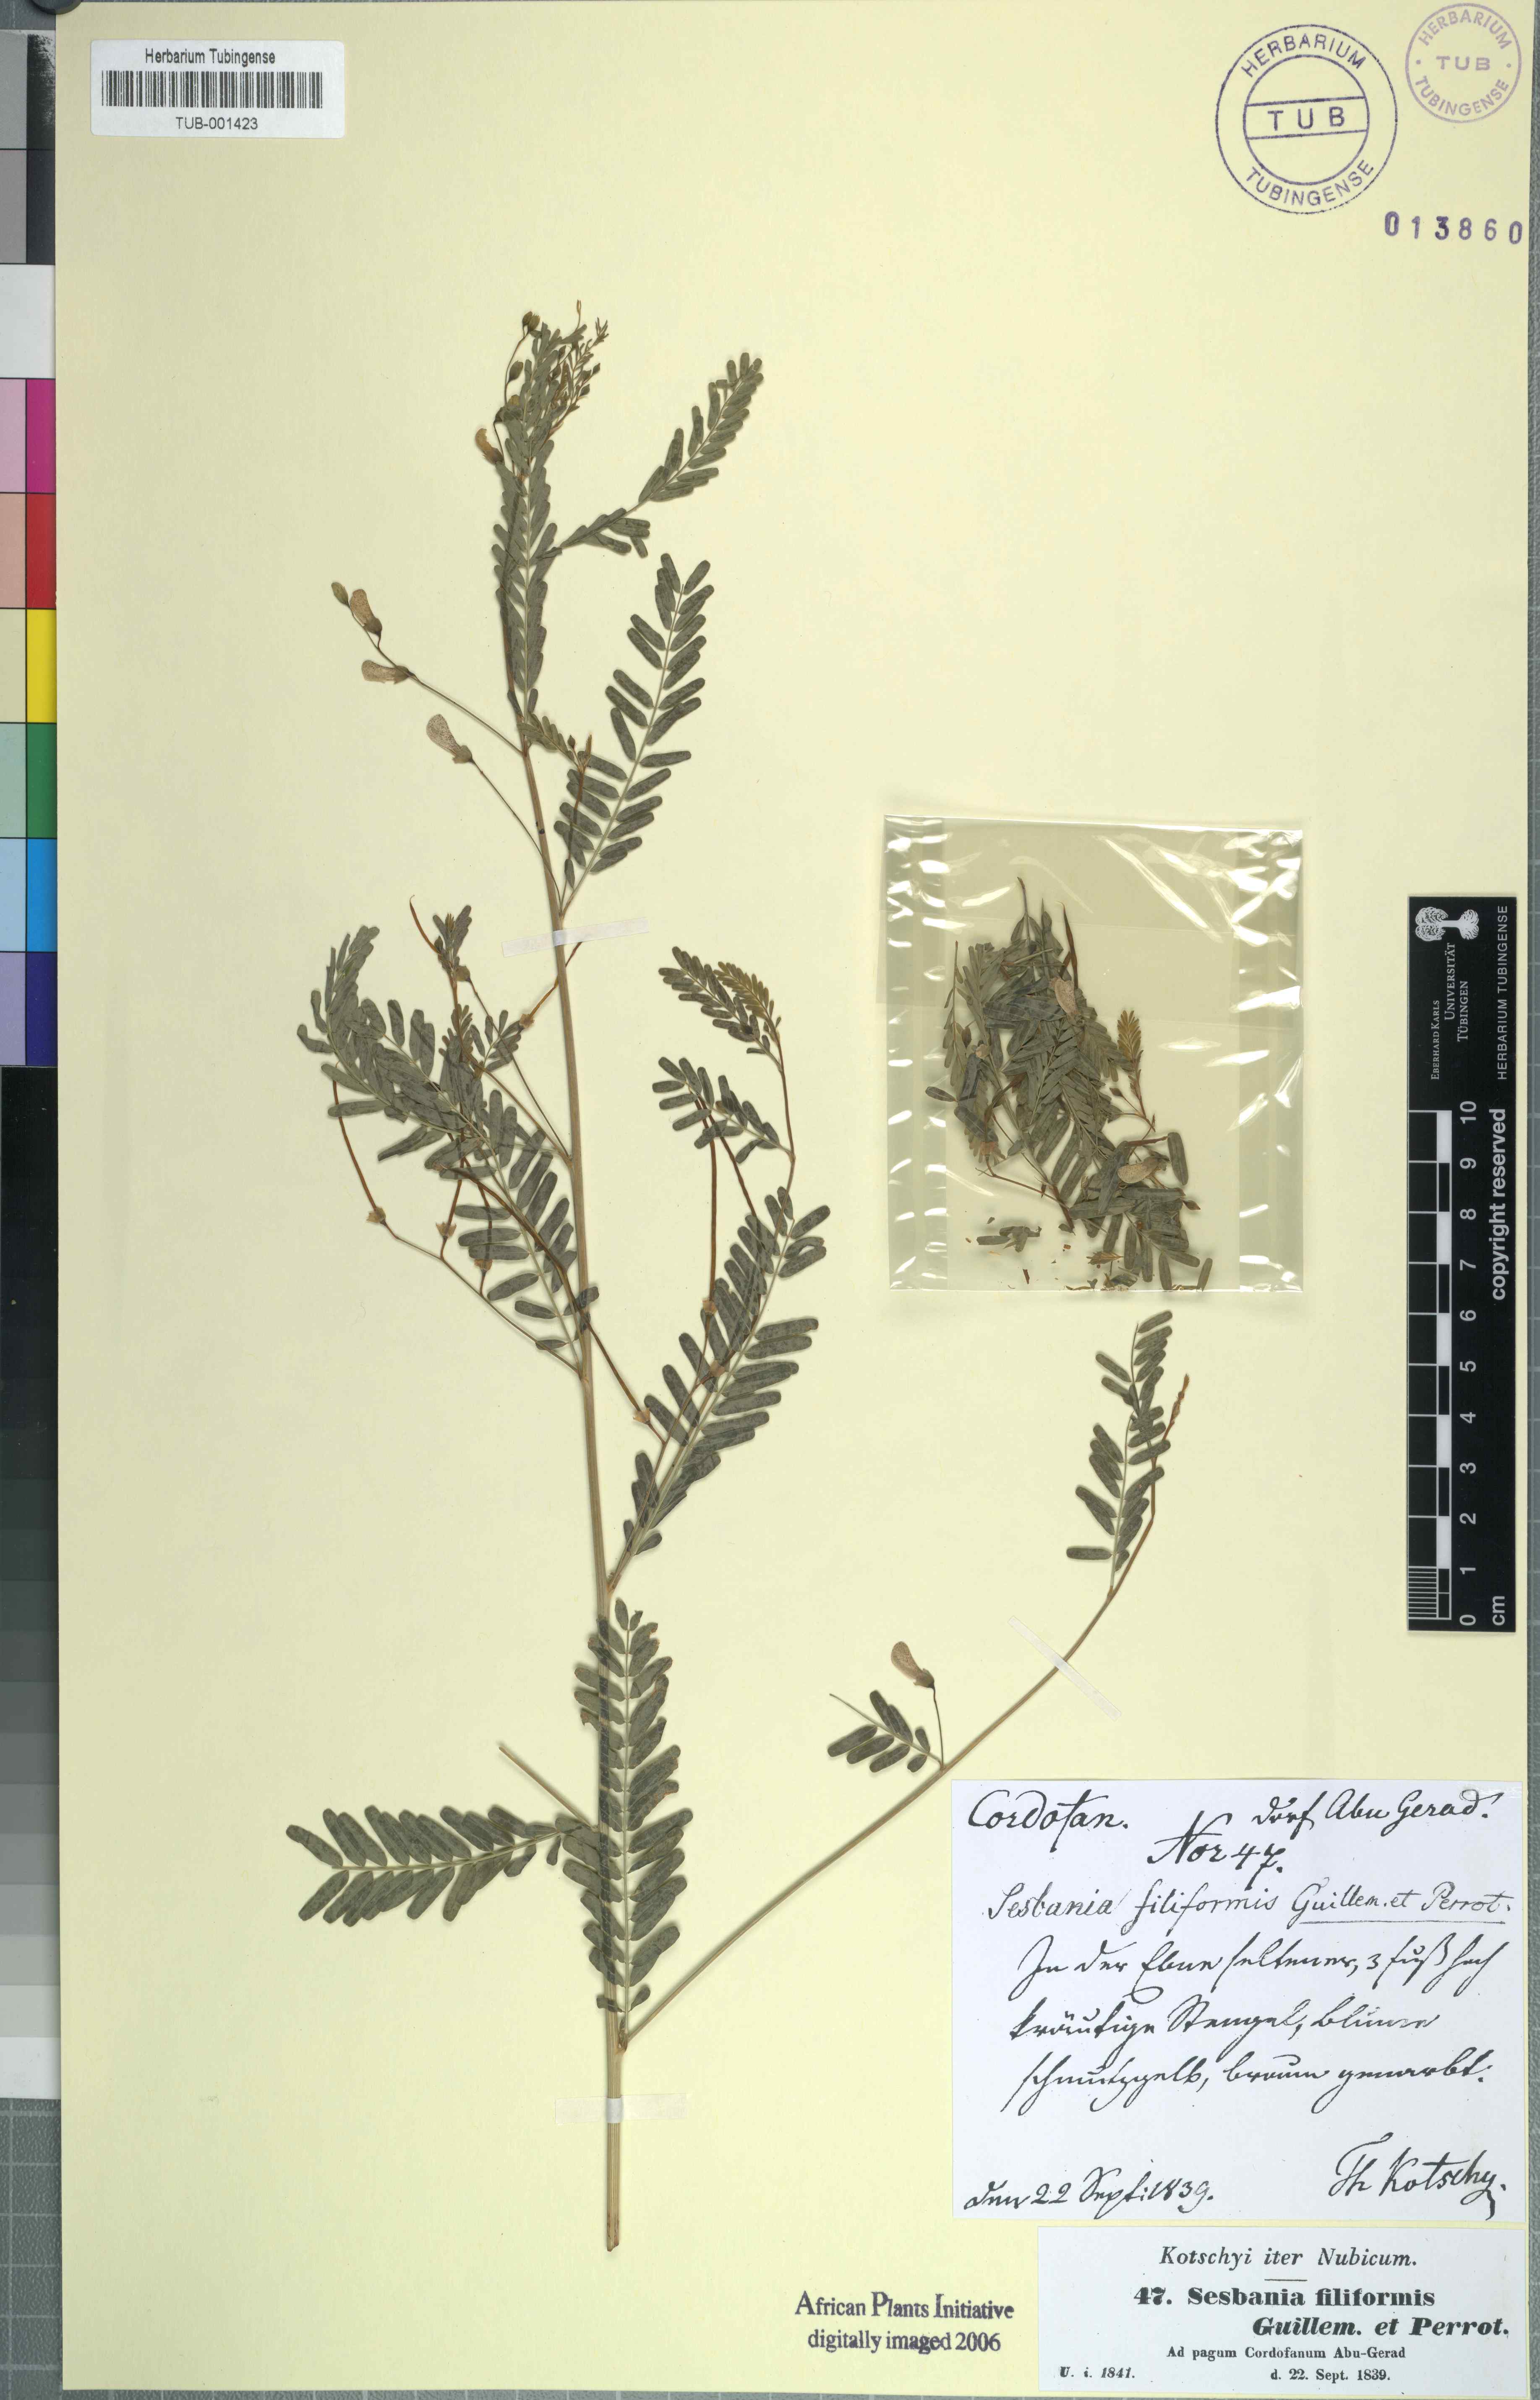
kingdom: Plantae
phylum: Tracheophyta
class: Magnoliopsida
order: Fabales
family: Fabaceae
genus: Sesbania
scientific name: Sesbania leptocarpa
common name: Riverhemp
